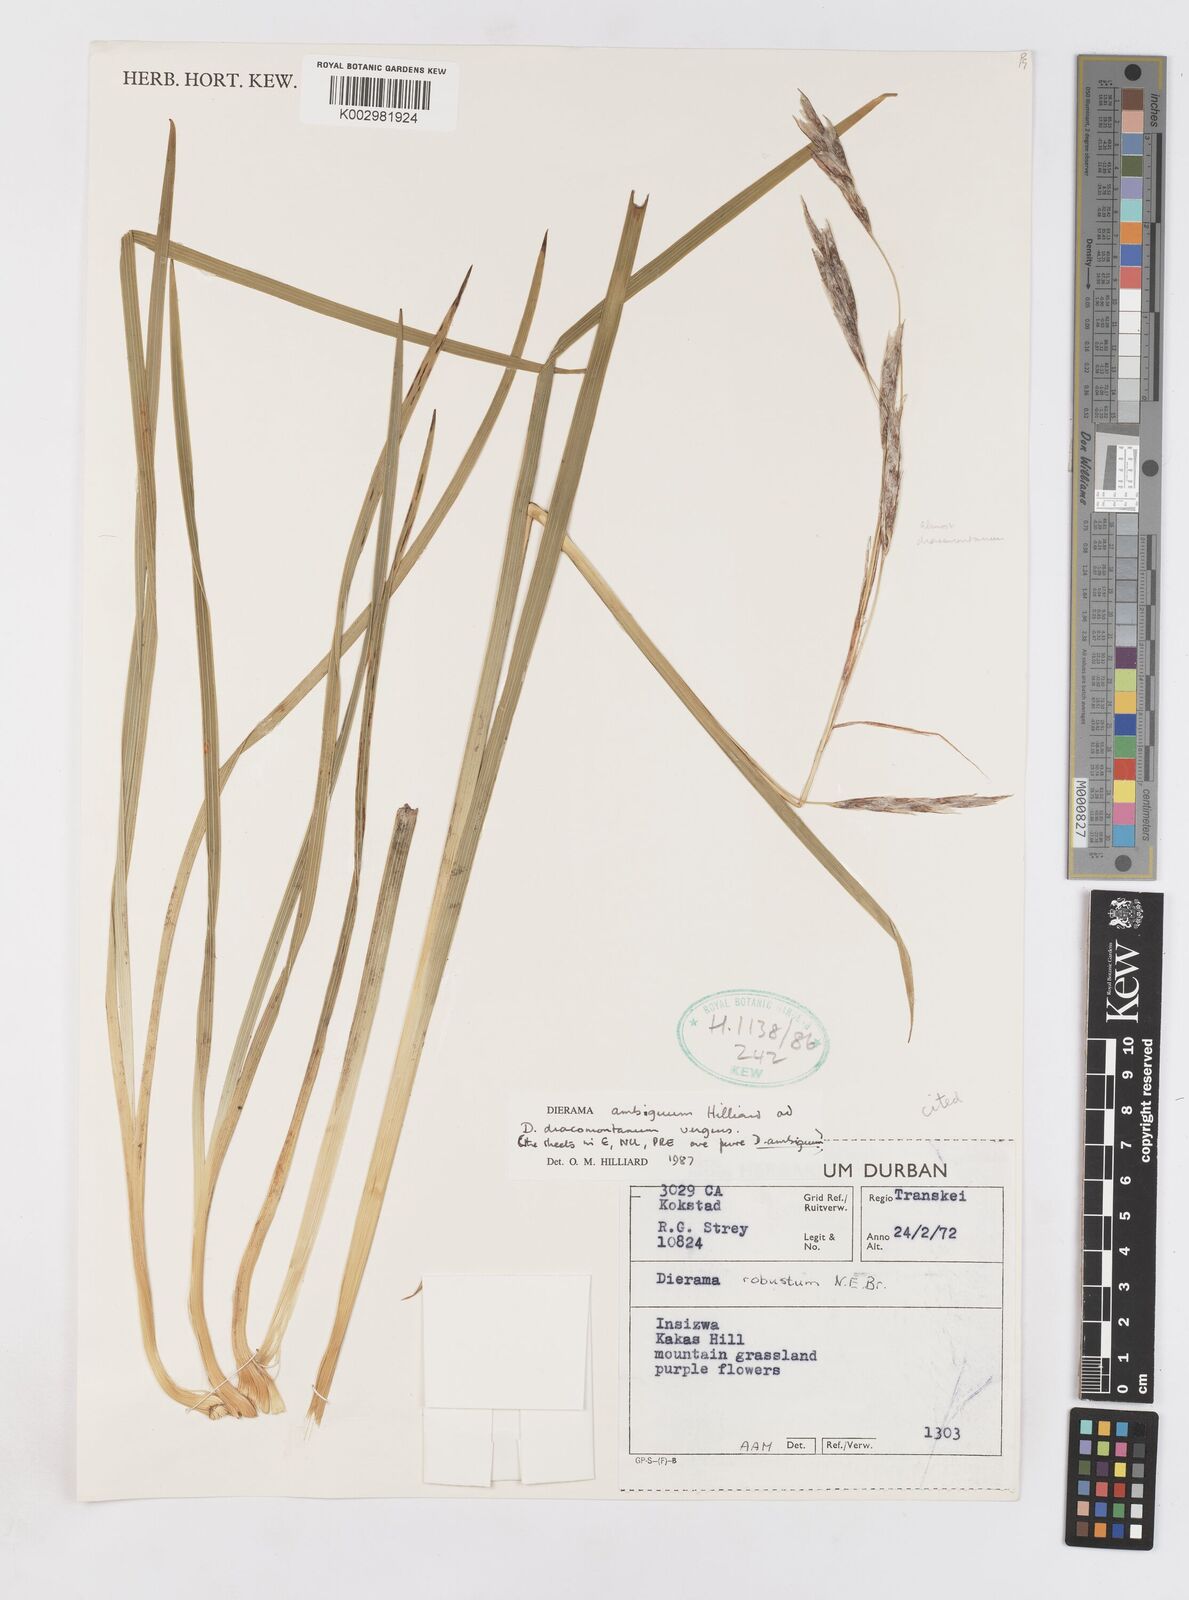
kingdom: Plantae
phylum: Tracheophyta
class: Liliopsida
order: Asparagales
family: Iridaceae
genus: Dierama
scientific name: Dierama ambiguum
